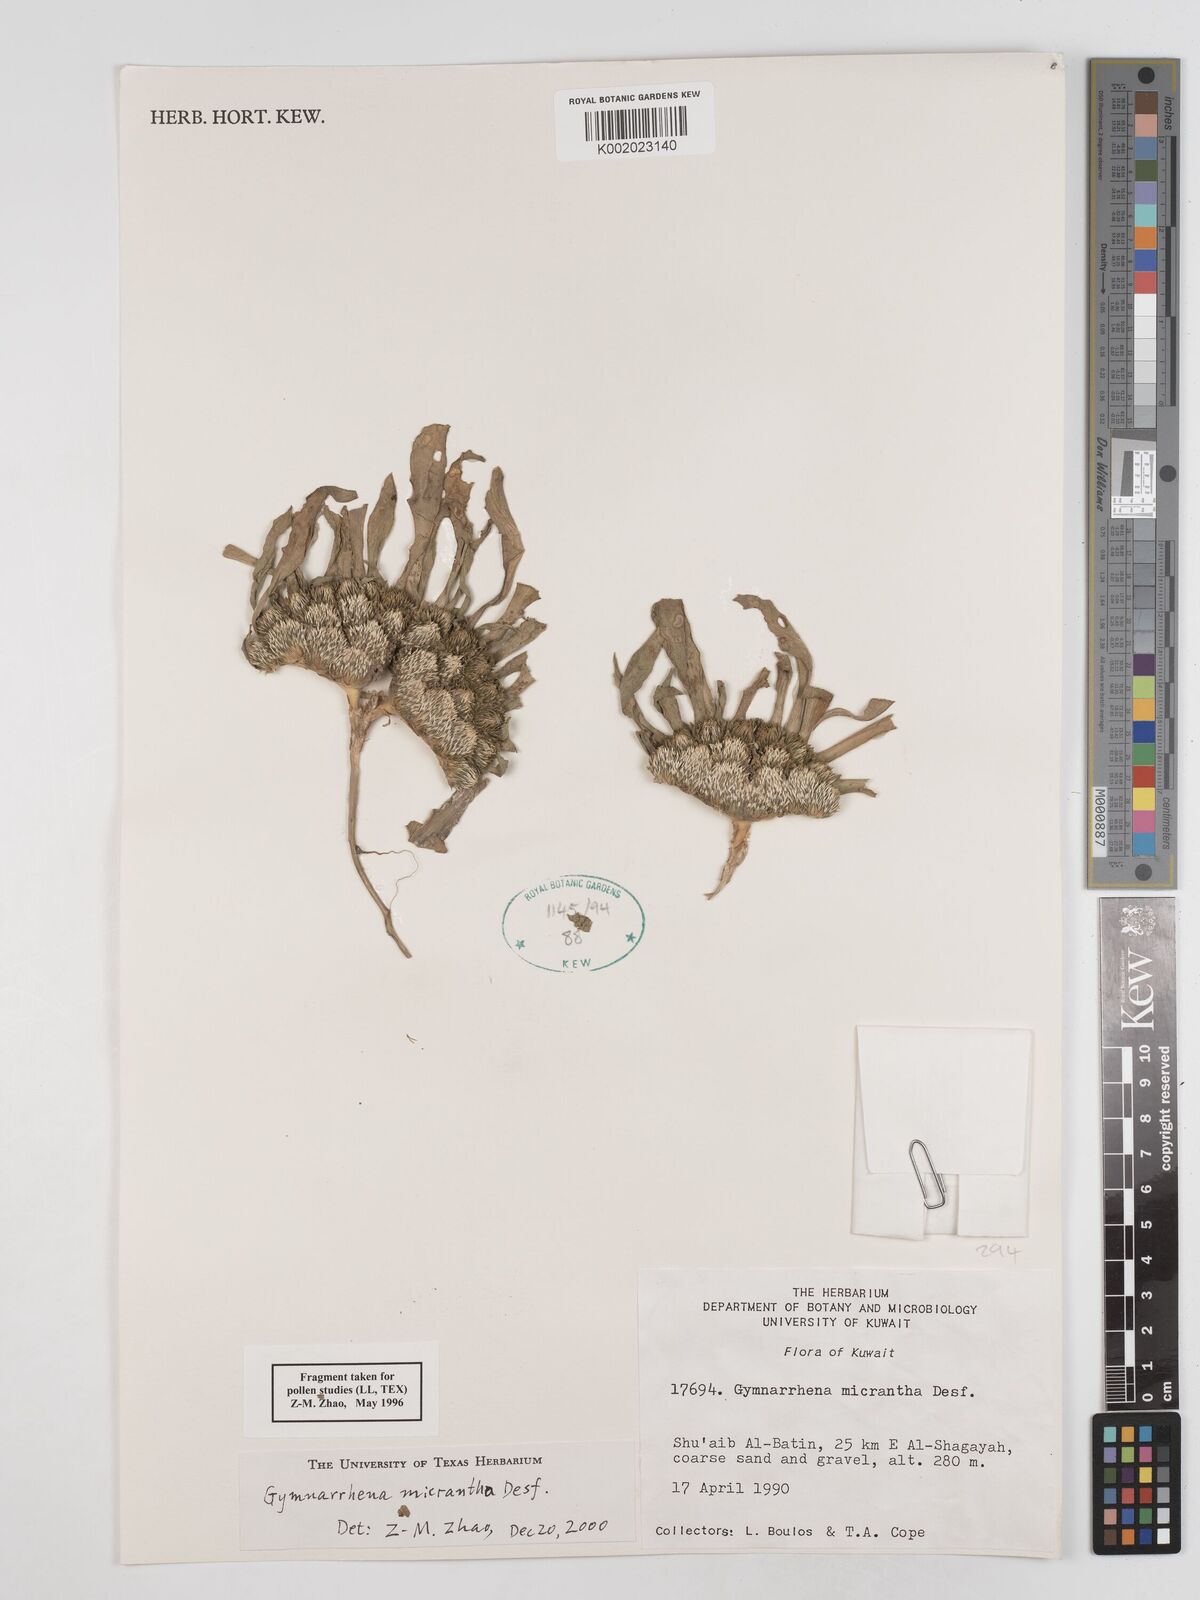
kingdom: Plantae
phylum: Tracheophyta
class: Magnoliopsida
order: Asterales
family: Asteraceae
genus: Gymnarrhena
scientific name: Gymnarrhena micrantha
